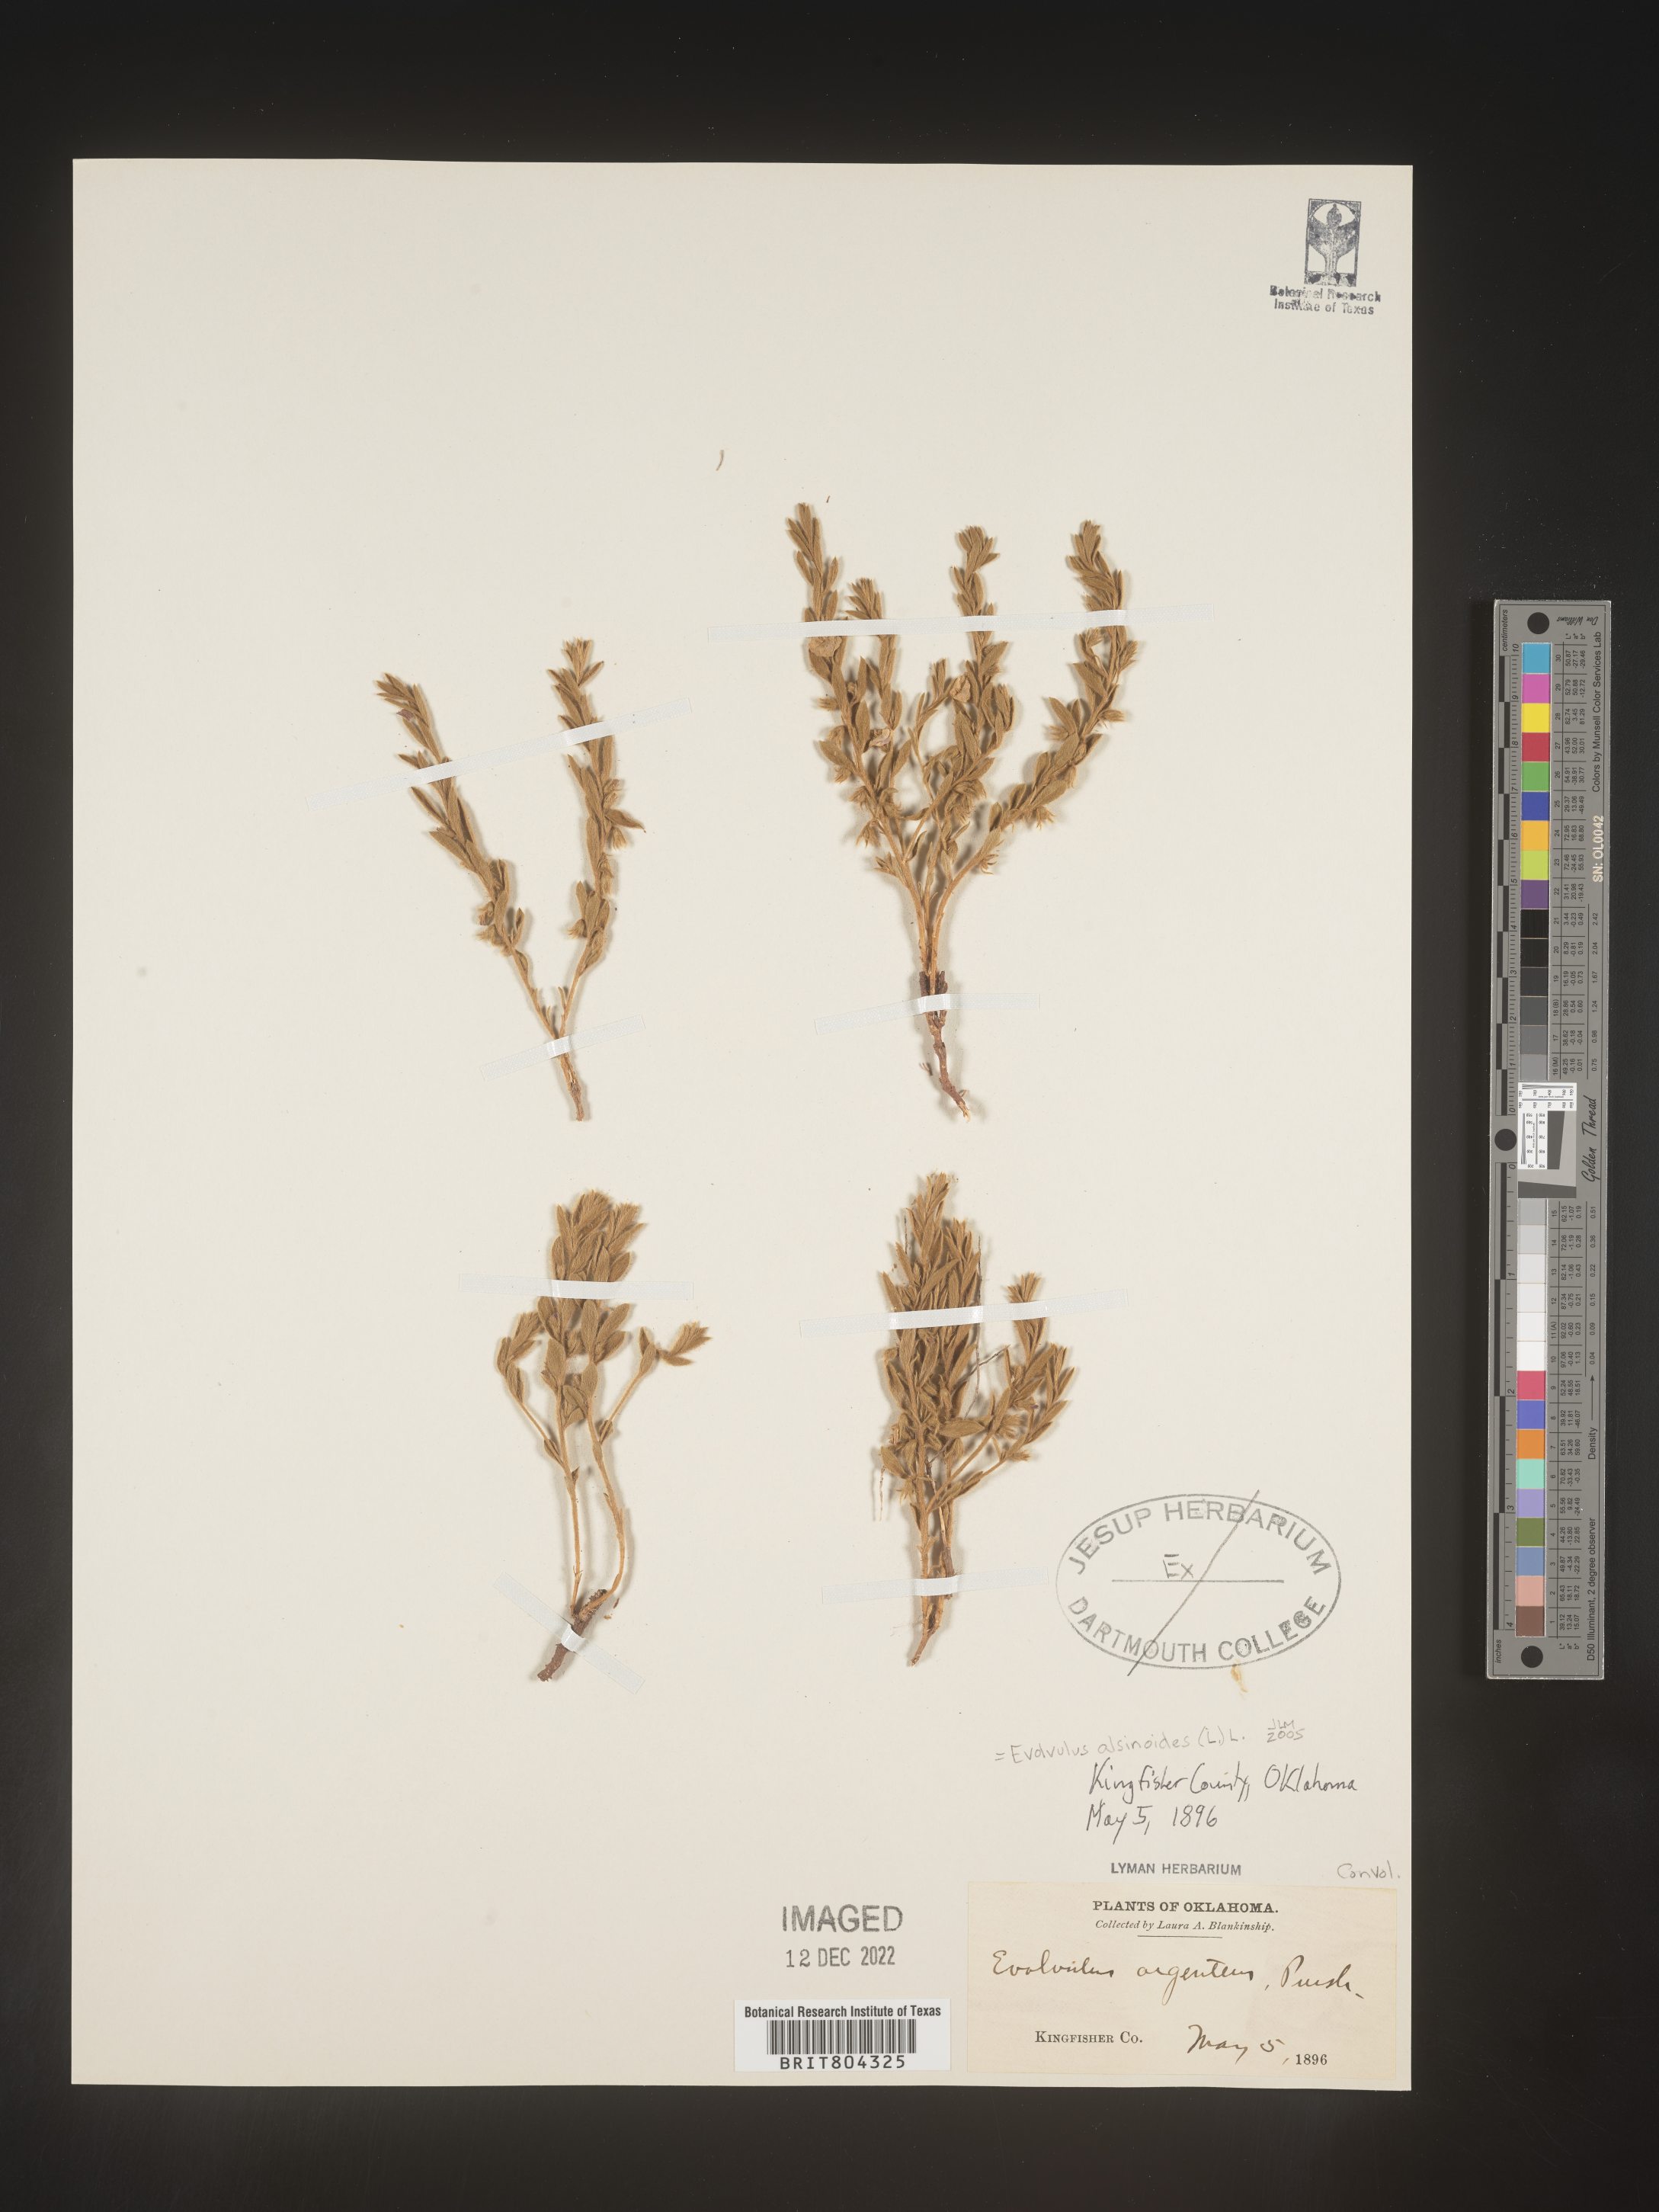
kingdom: Plantae
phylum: Tracheophyta
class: Magnoliopsida
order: Solanales
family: Convolvulaceae
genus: Evolvulus
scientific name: Evolvulus alsinoides
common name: Slender dwarf morning-glory
